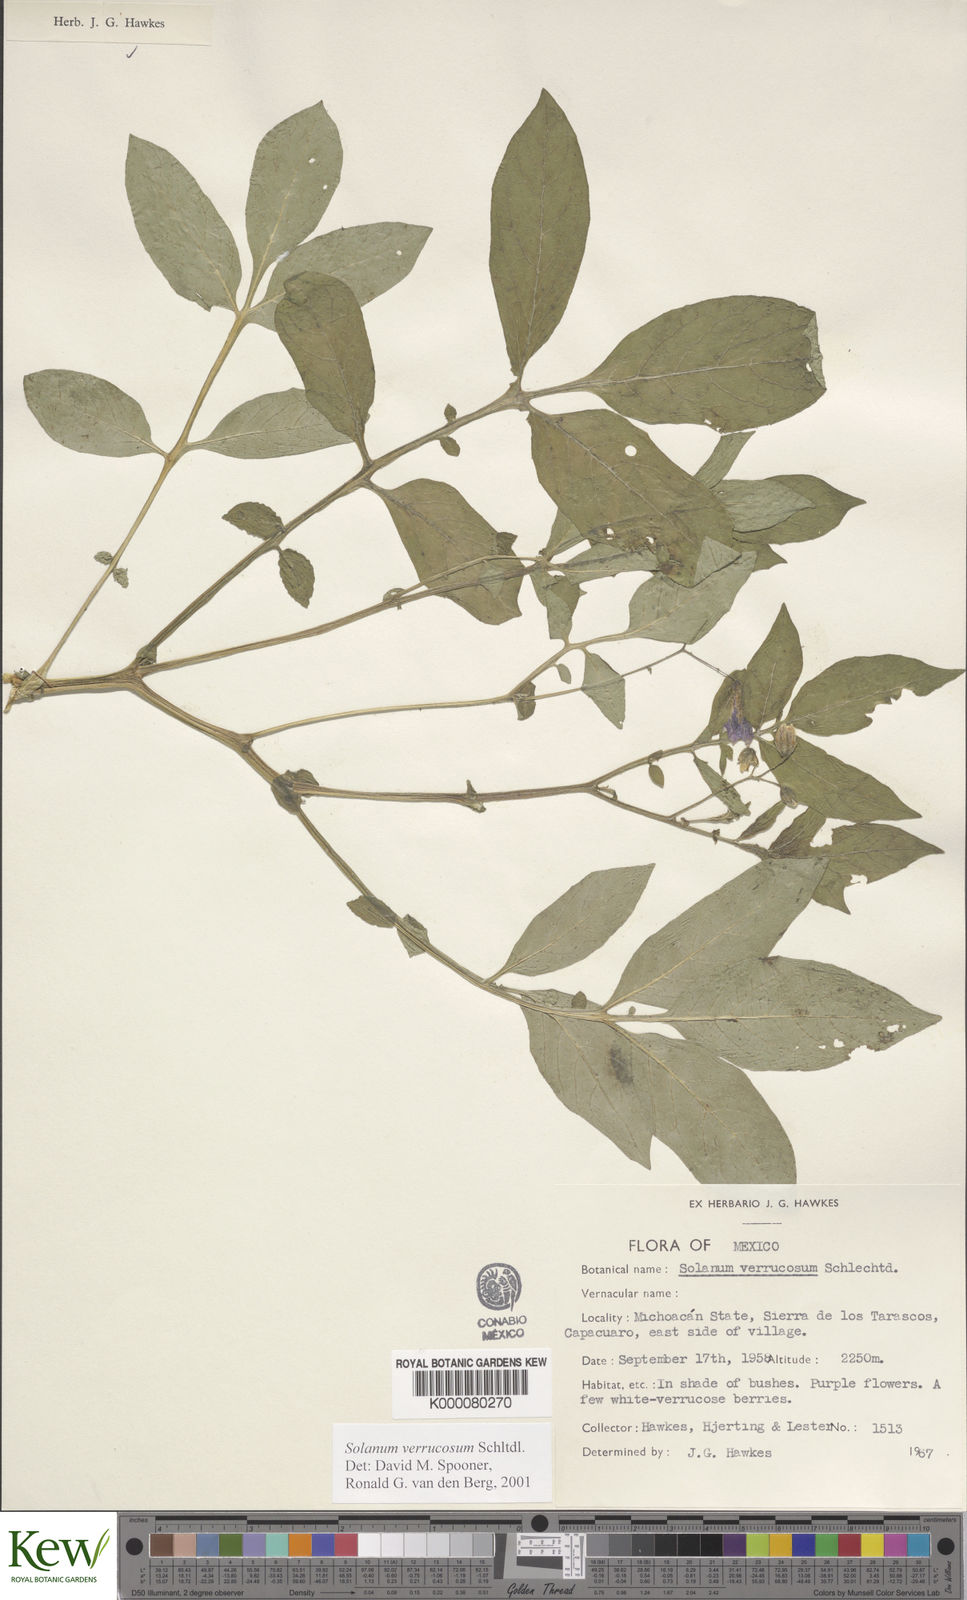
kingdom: Plantae
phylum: Tracheophyta
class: Magnoliopsida
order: Solanales
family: Solanaceae
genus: Solanum
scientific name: Solanum verrucosum
